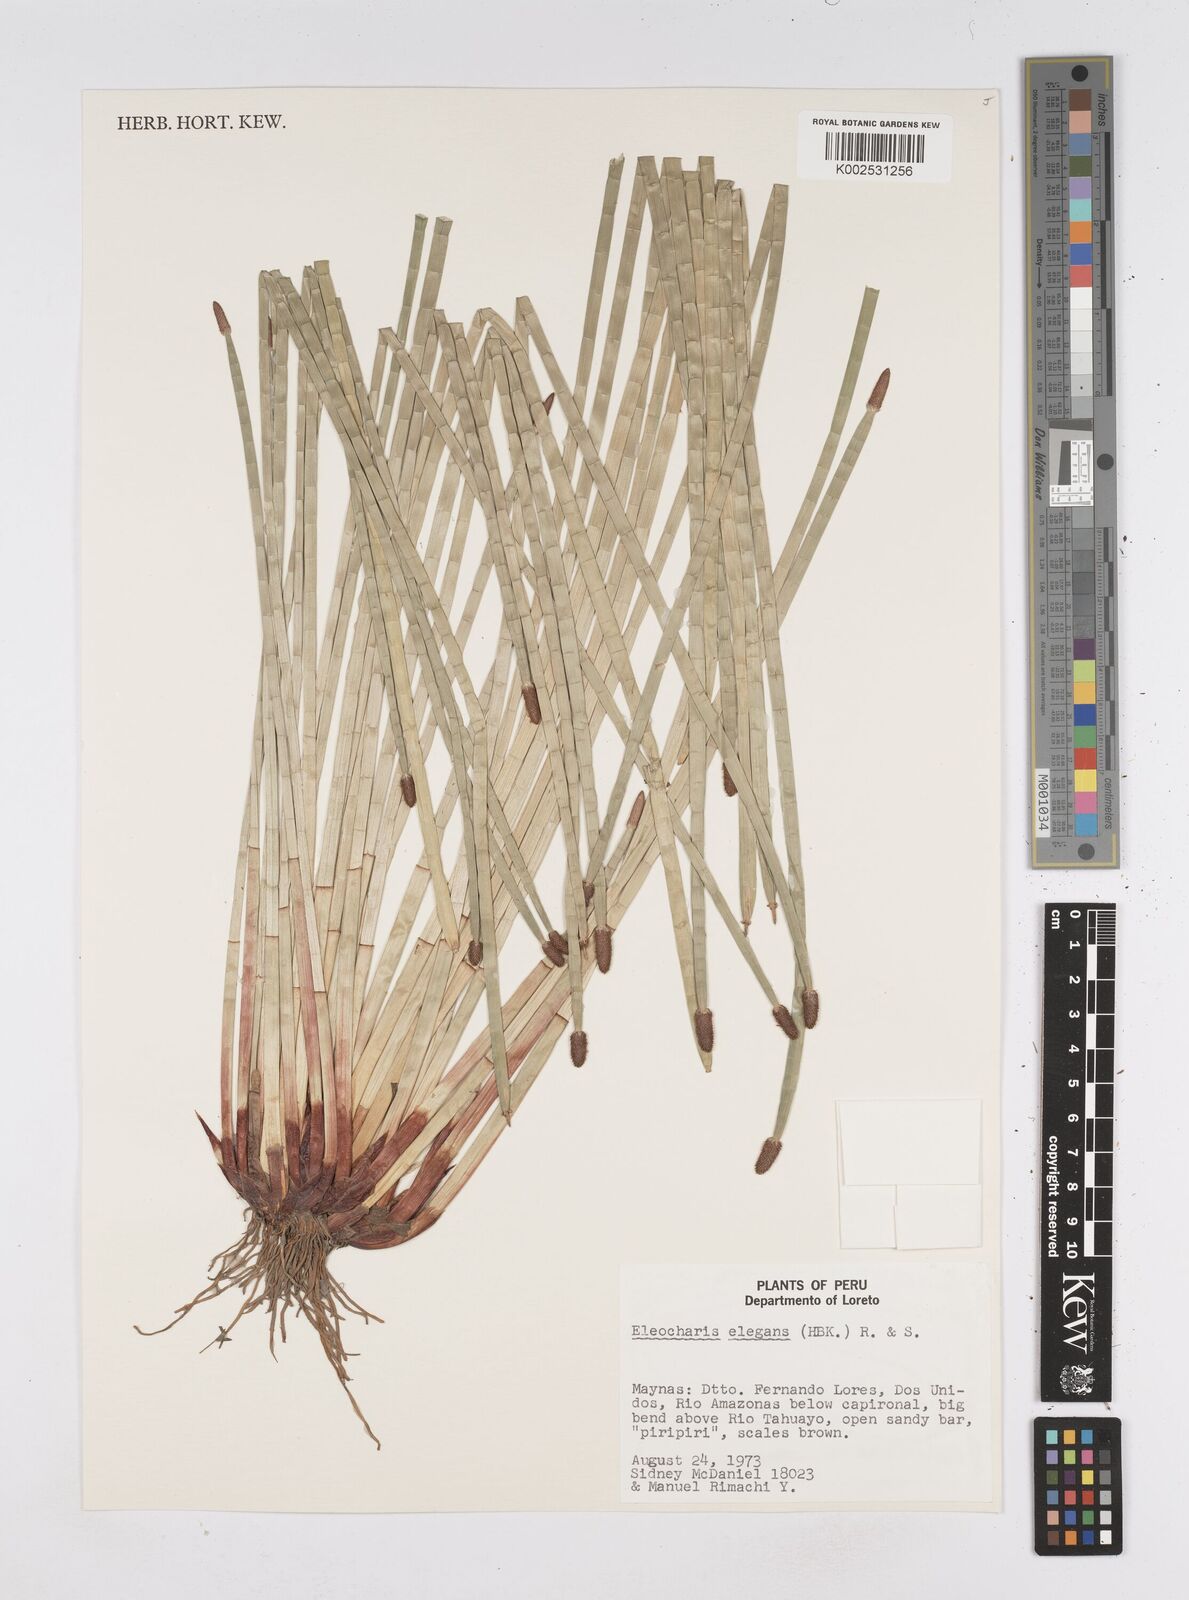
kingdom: Plantae
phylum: Tracheophyta
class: Liliopsida
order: Poales
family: Cyperaceae
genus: Eleocharis
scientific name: Eleocharis elegans
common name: Elegant spike-rush
